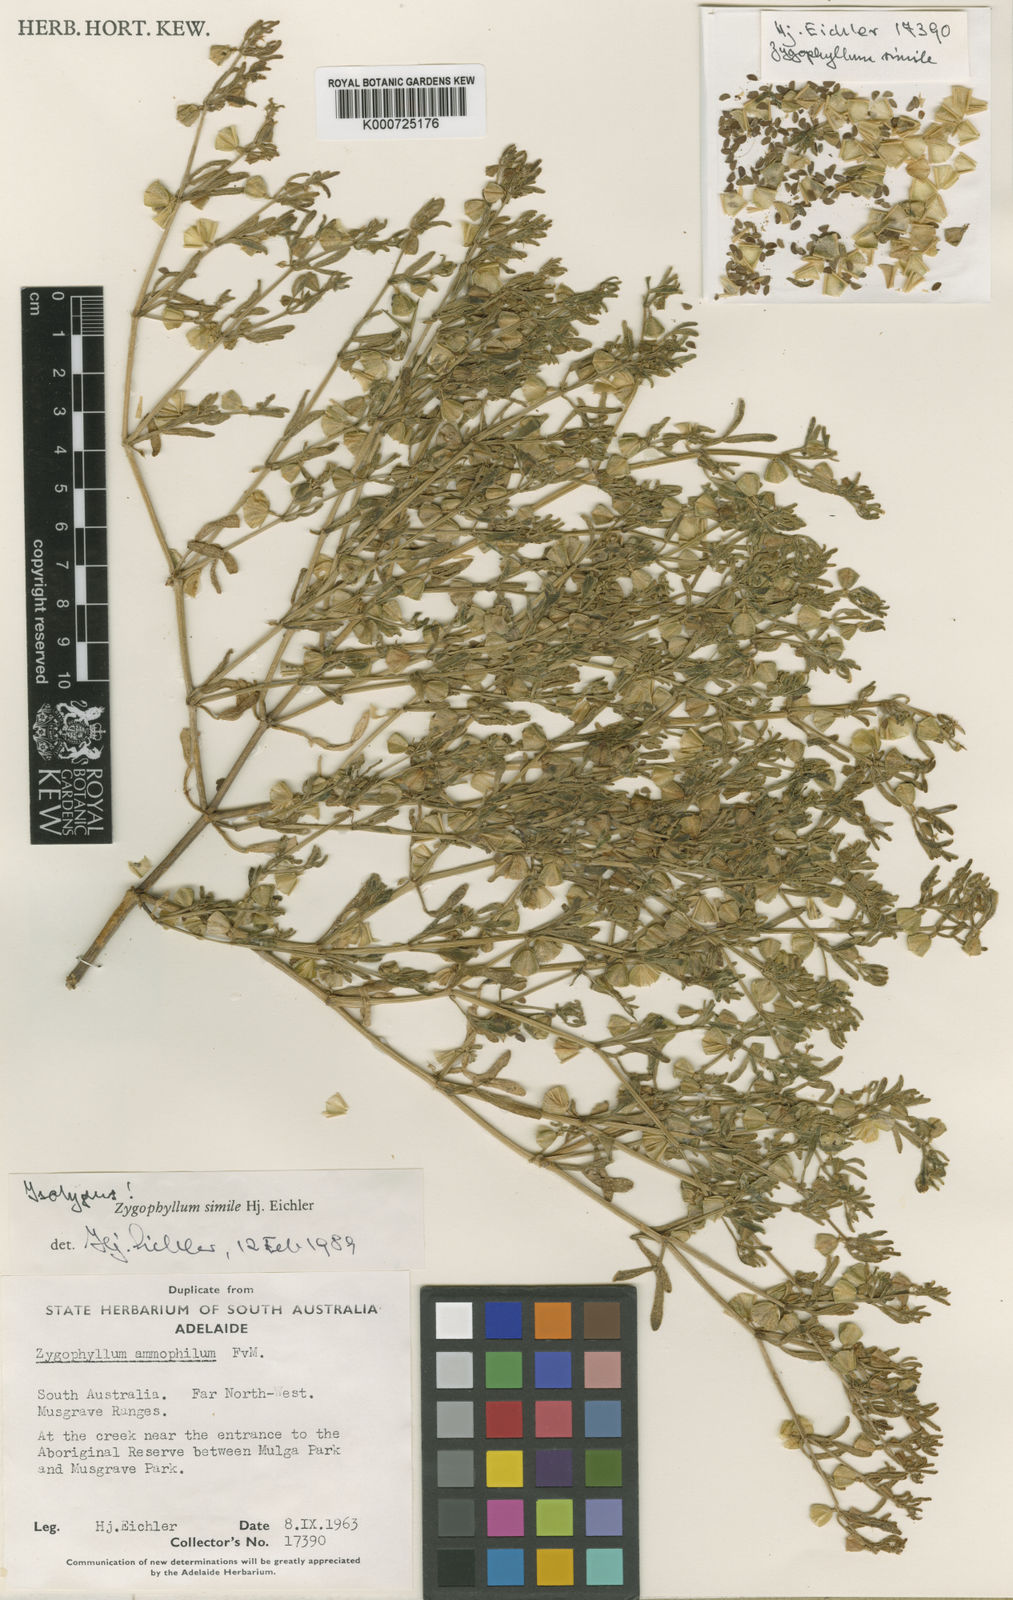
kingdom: Plantae
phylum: Tracheophyta
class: Magnoliopsida
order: Zygophyllales
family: Zygophyllaceae
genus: Roepera
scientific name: Roepera similis
